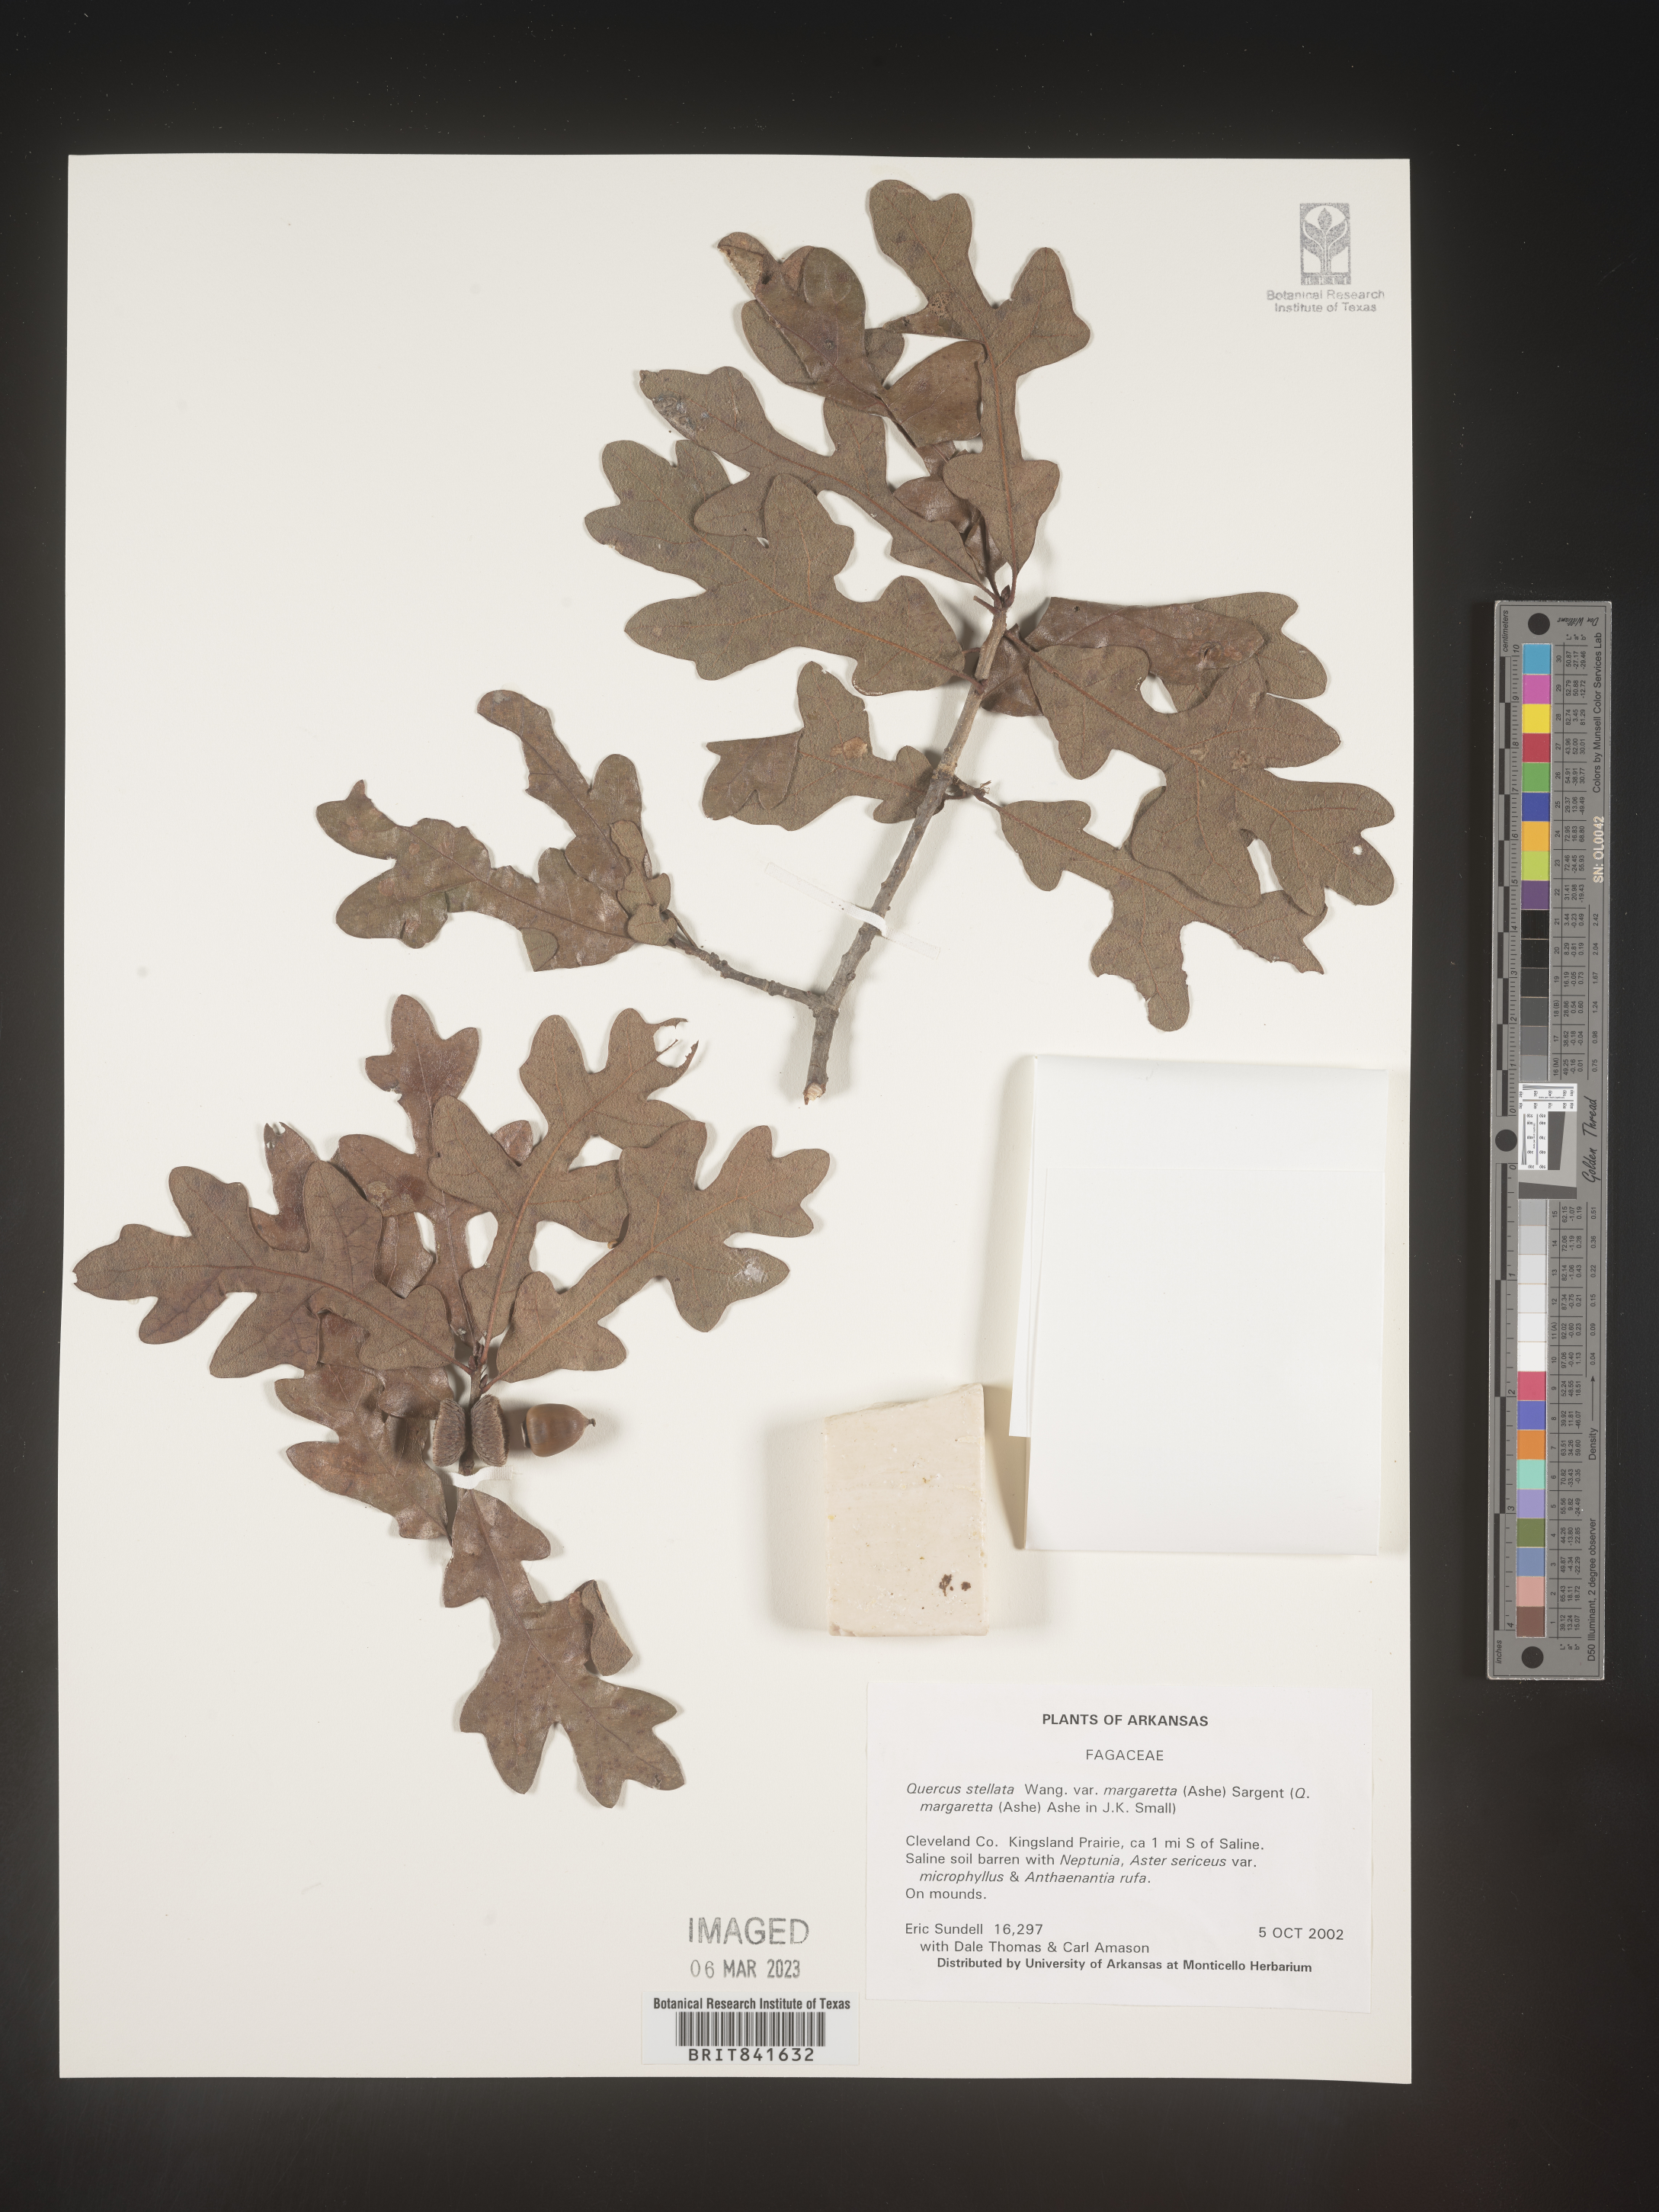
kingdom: Plantae
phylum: Tracheophyta
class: Magnoliopsida
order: Fagales
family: Fagaceae
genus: Quercus
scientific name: Quercus stellata
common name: Post oak
